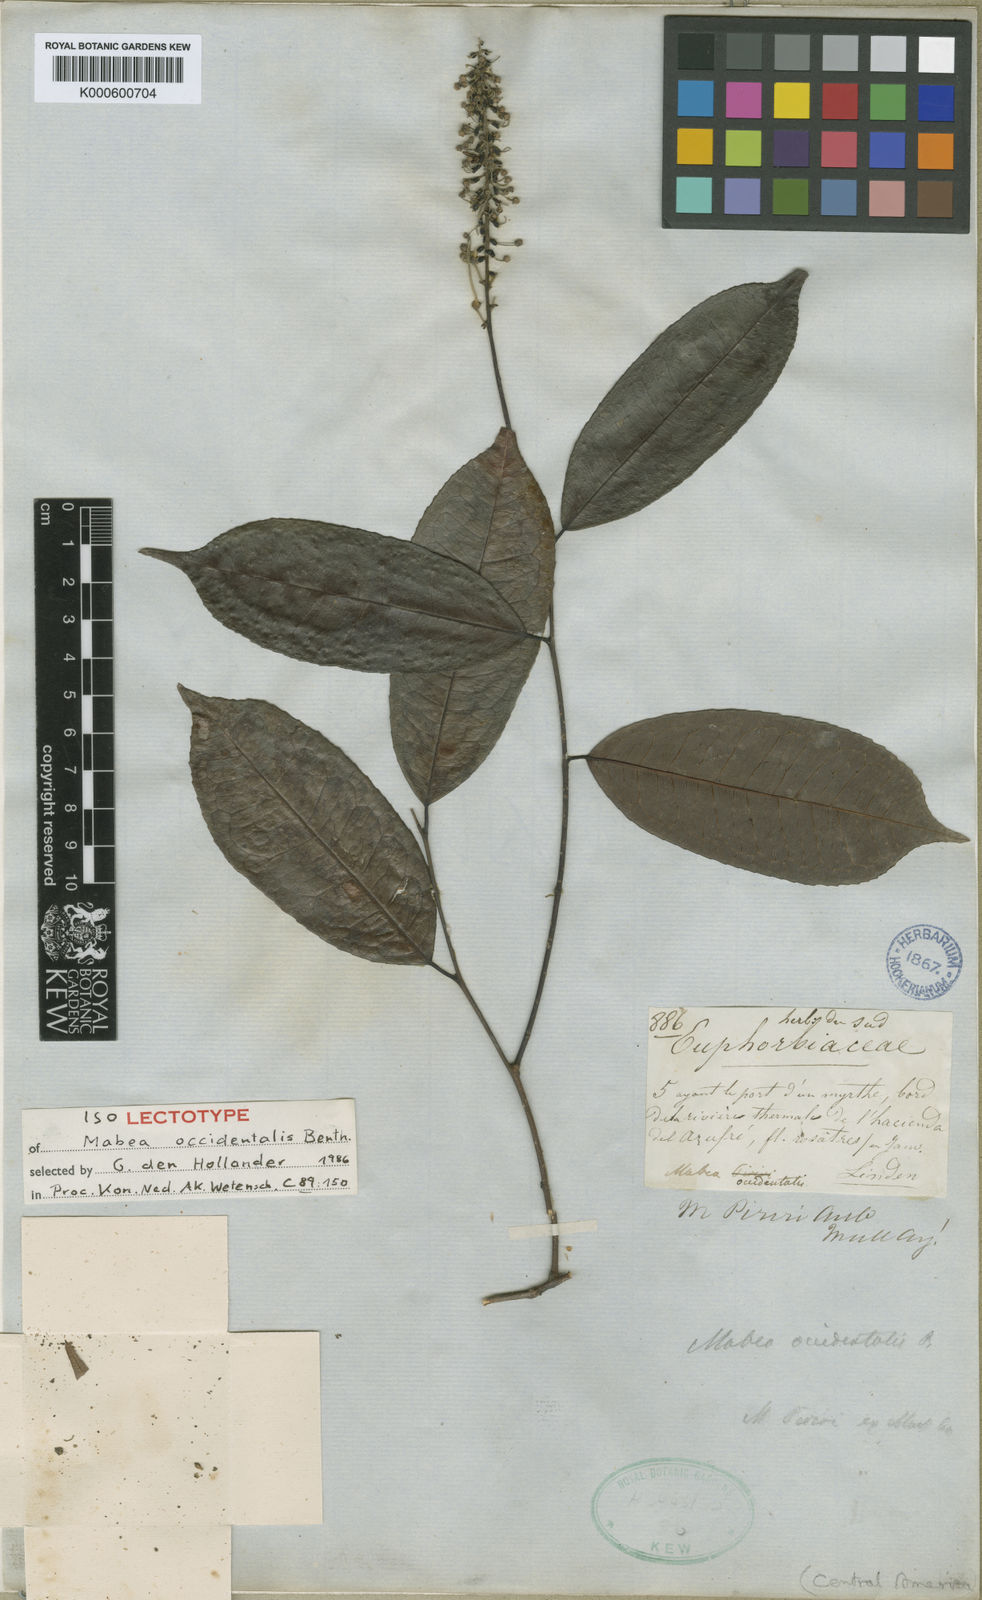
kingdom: Plantae
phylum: Tracheophyta
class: Magnoliopsida
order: Malpighiales
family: Euphorbiaceae
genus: Mabea
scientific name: Mabea occidentalis
